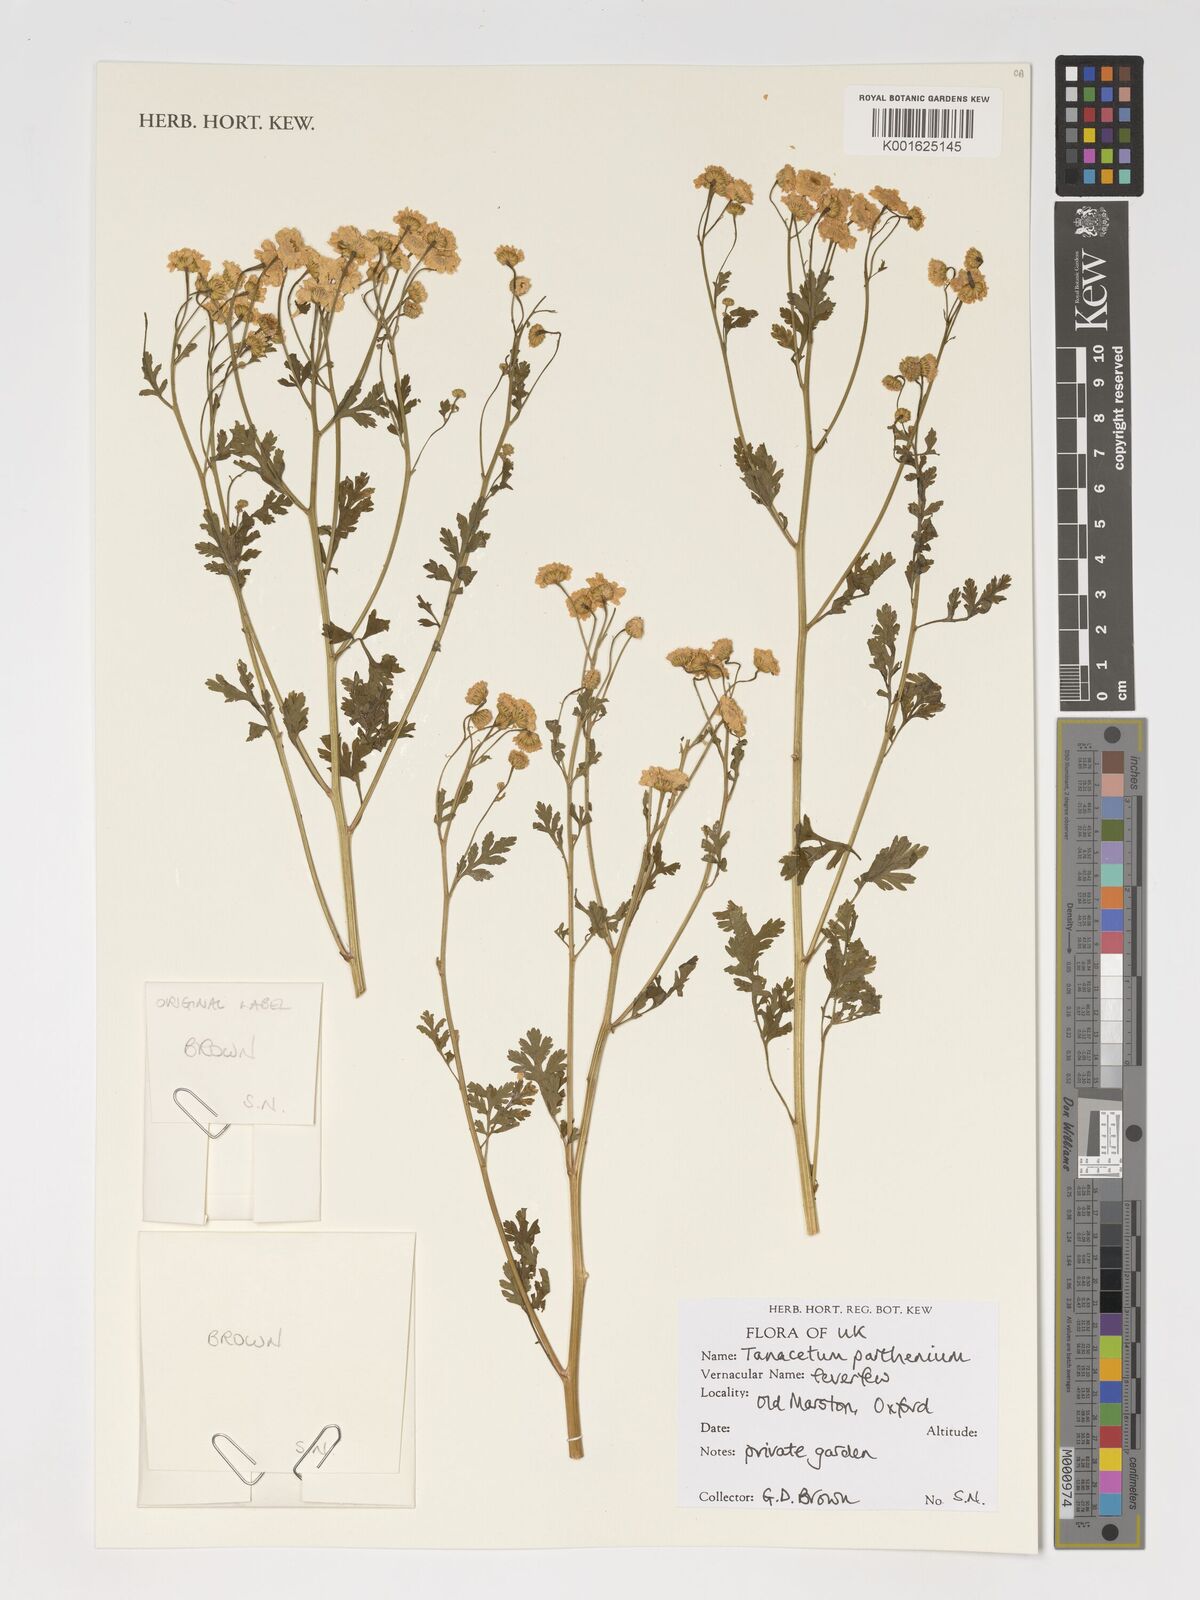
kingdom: Plantae
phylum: Tracheophyta
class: Magnoliopsida
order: Asterales
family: Asteraceae
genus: Tanacetum
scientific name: Tanacetum parthenium
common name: Feverfew
